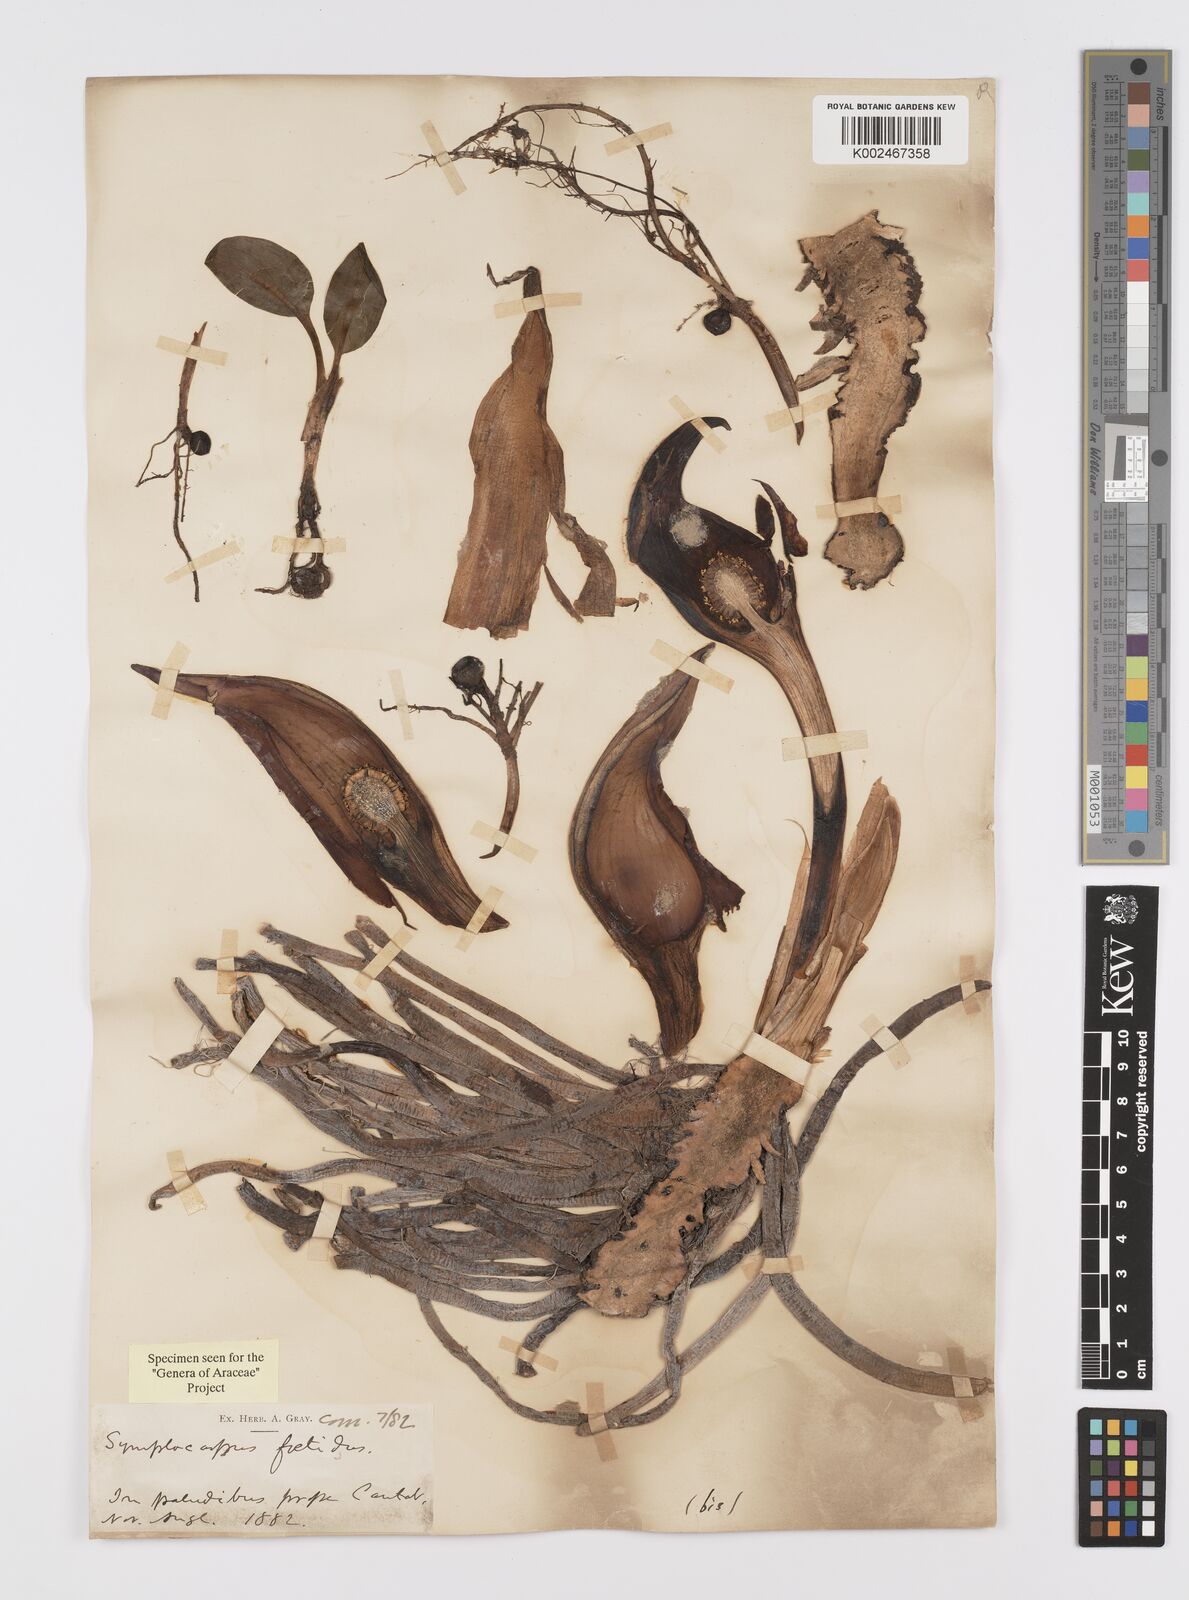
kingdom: Plantae
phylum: Tracheophyta
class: Liliopsida
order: Alismatales
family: Araceae
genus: Symplocarpus
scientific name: Symplocarpus foetidus
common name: Eastern skunk cabbage
